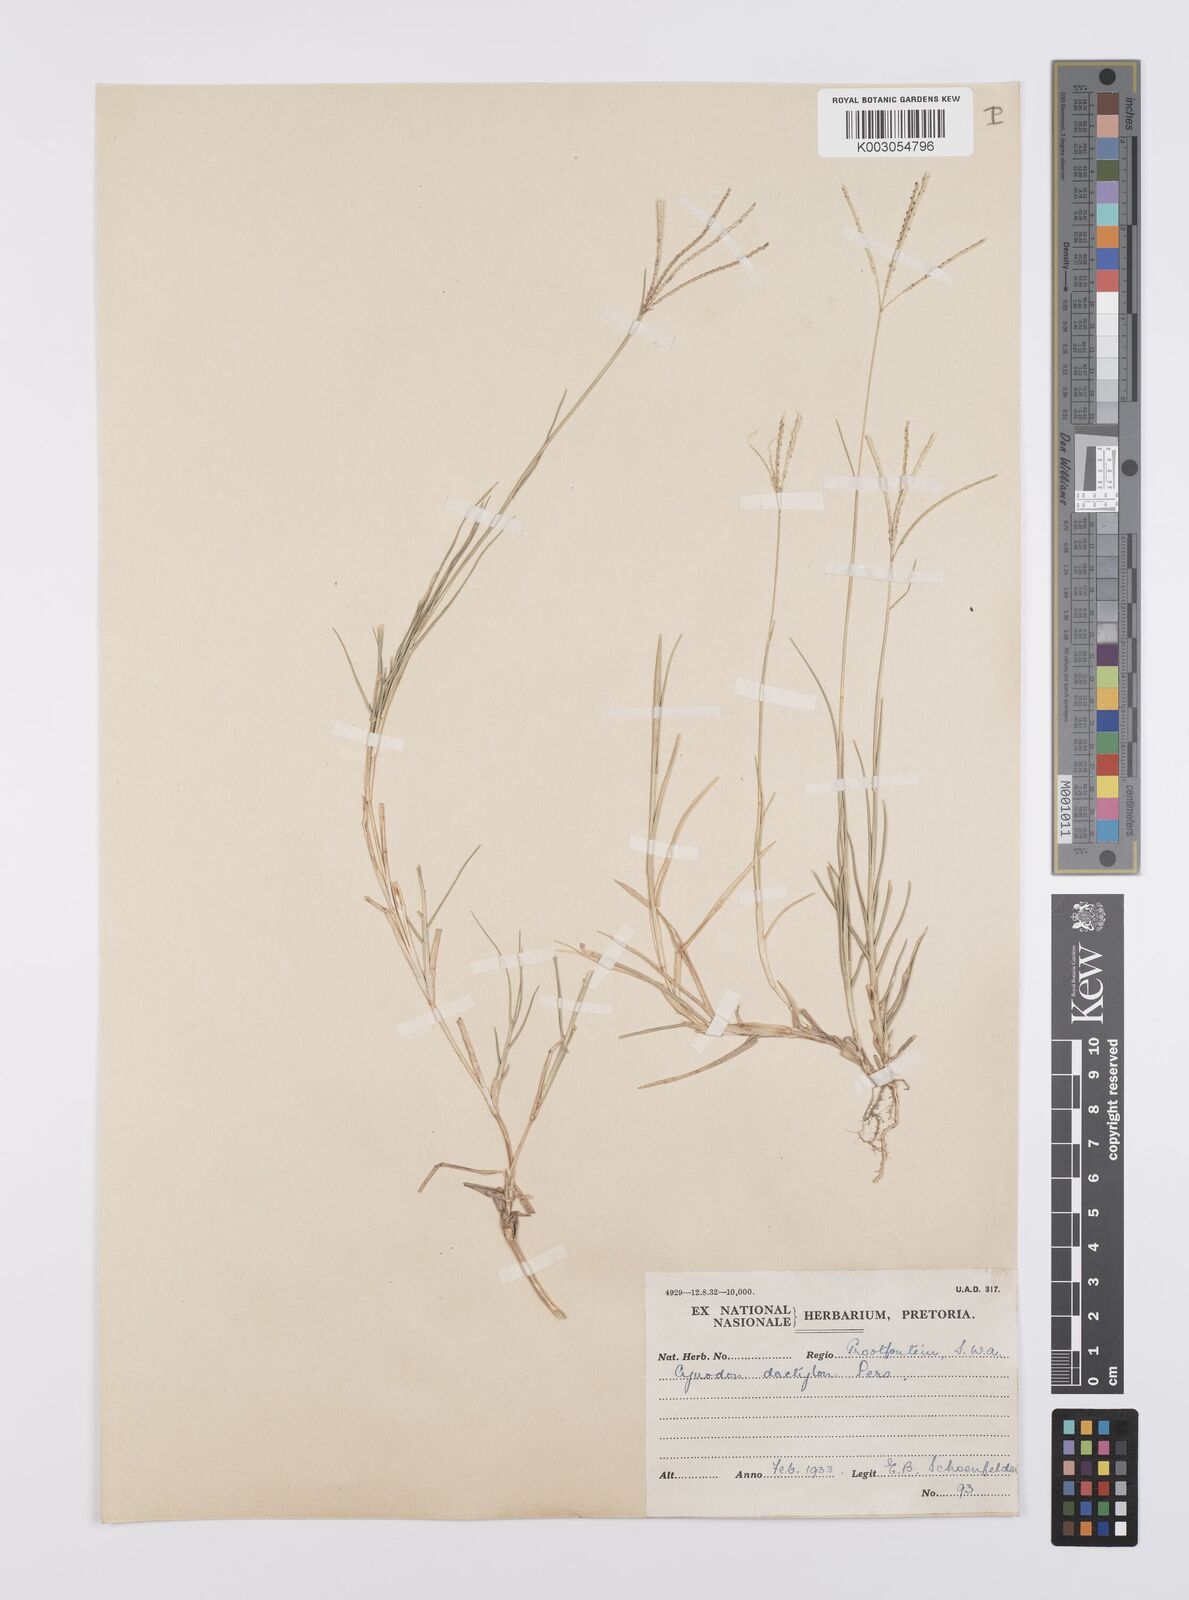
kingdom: Plantae
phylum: Tracheophyta
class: Liliopsida
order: Poales
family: Poaceae
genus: Cynodon
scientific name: Cynodon dactylon
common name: Bermuda grass
